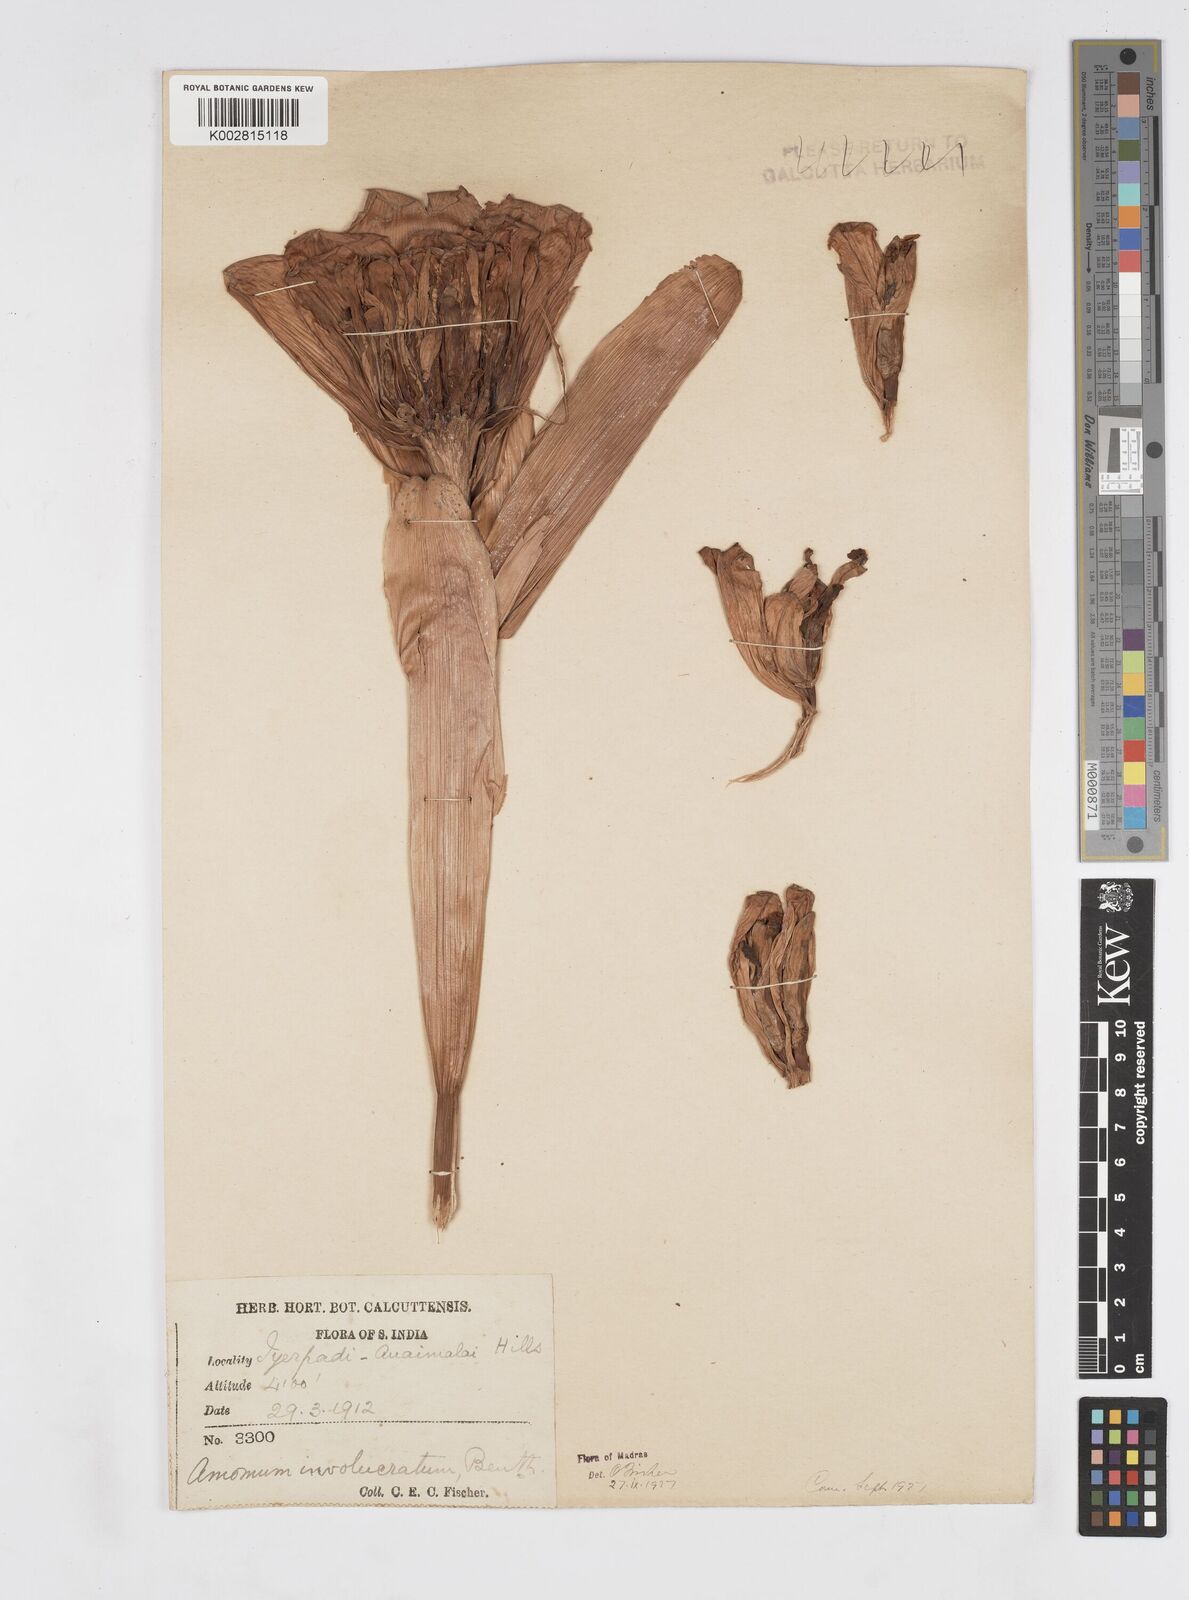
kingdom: Plantae
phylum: Tracheophyta
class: Liliopsida
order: Zingiberales
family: Zingiberaceae
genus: Alpinia
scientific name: Alpinia abundiflora
